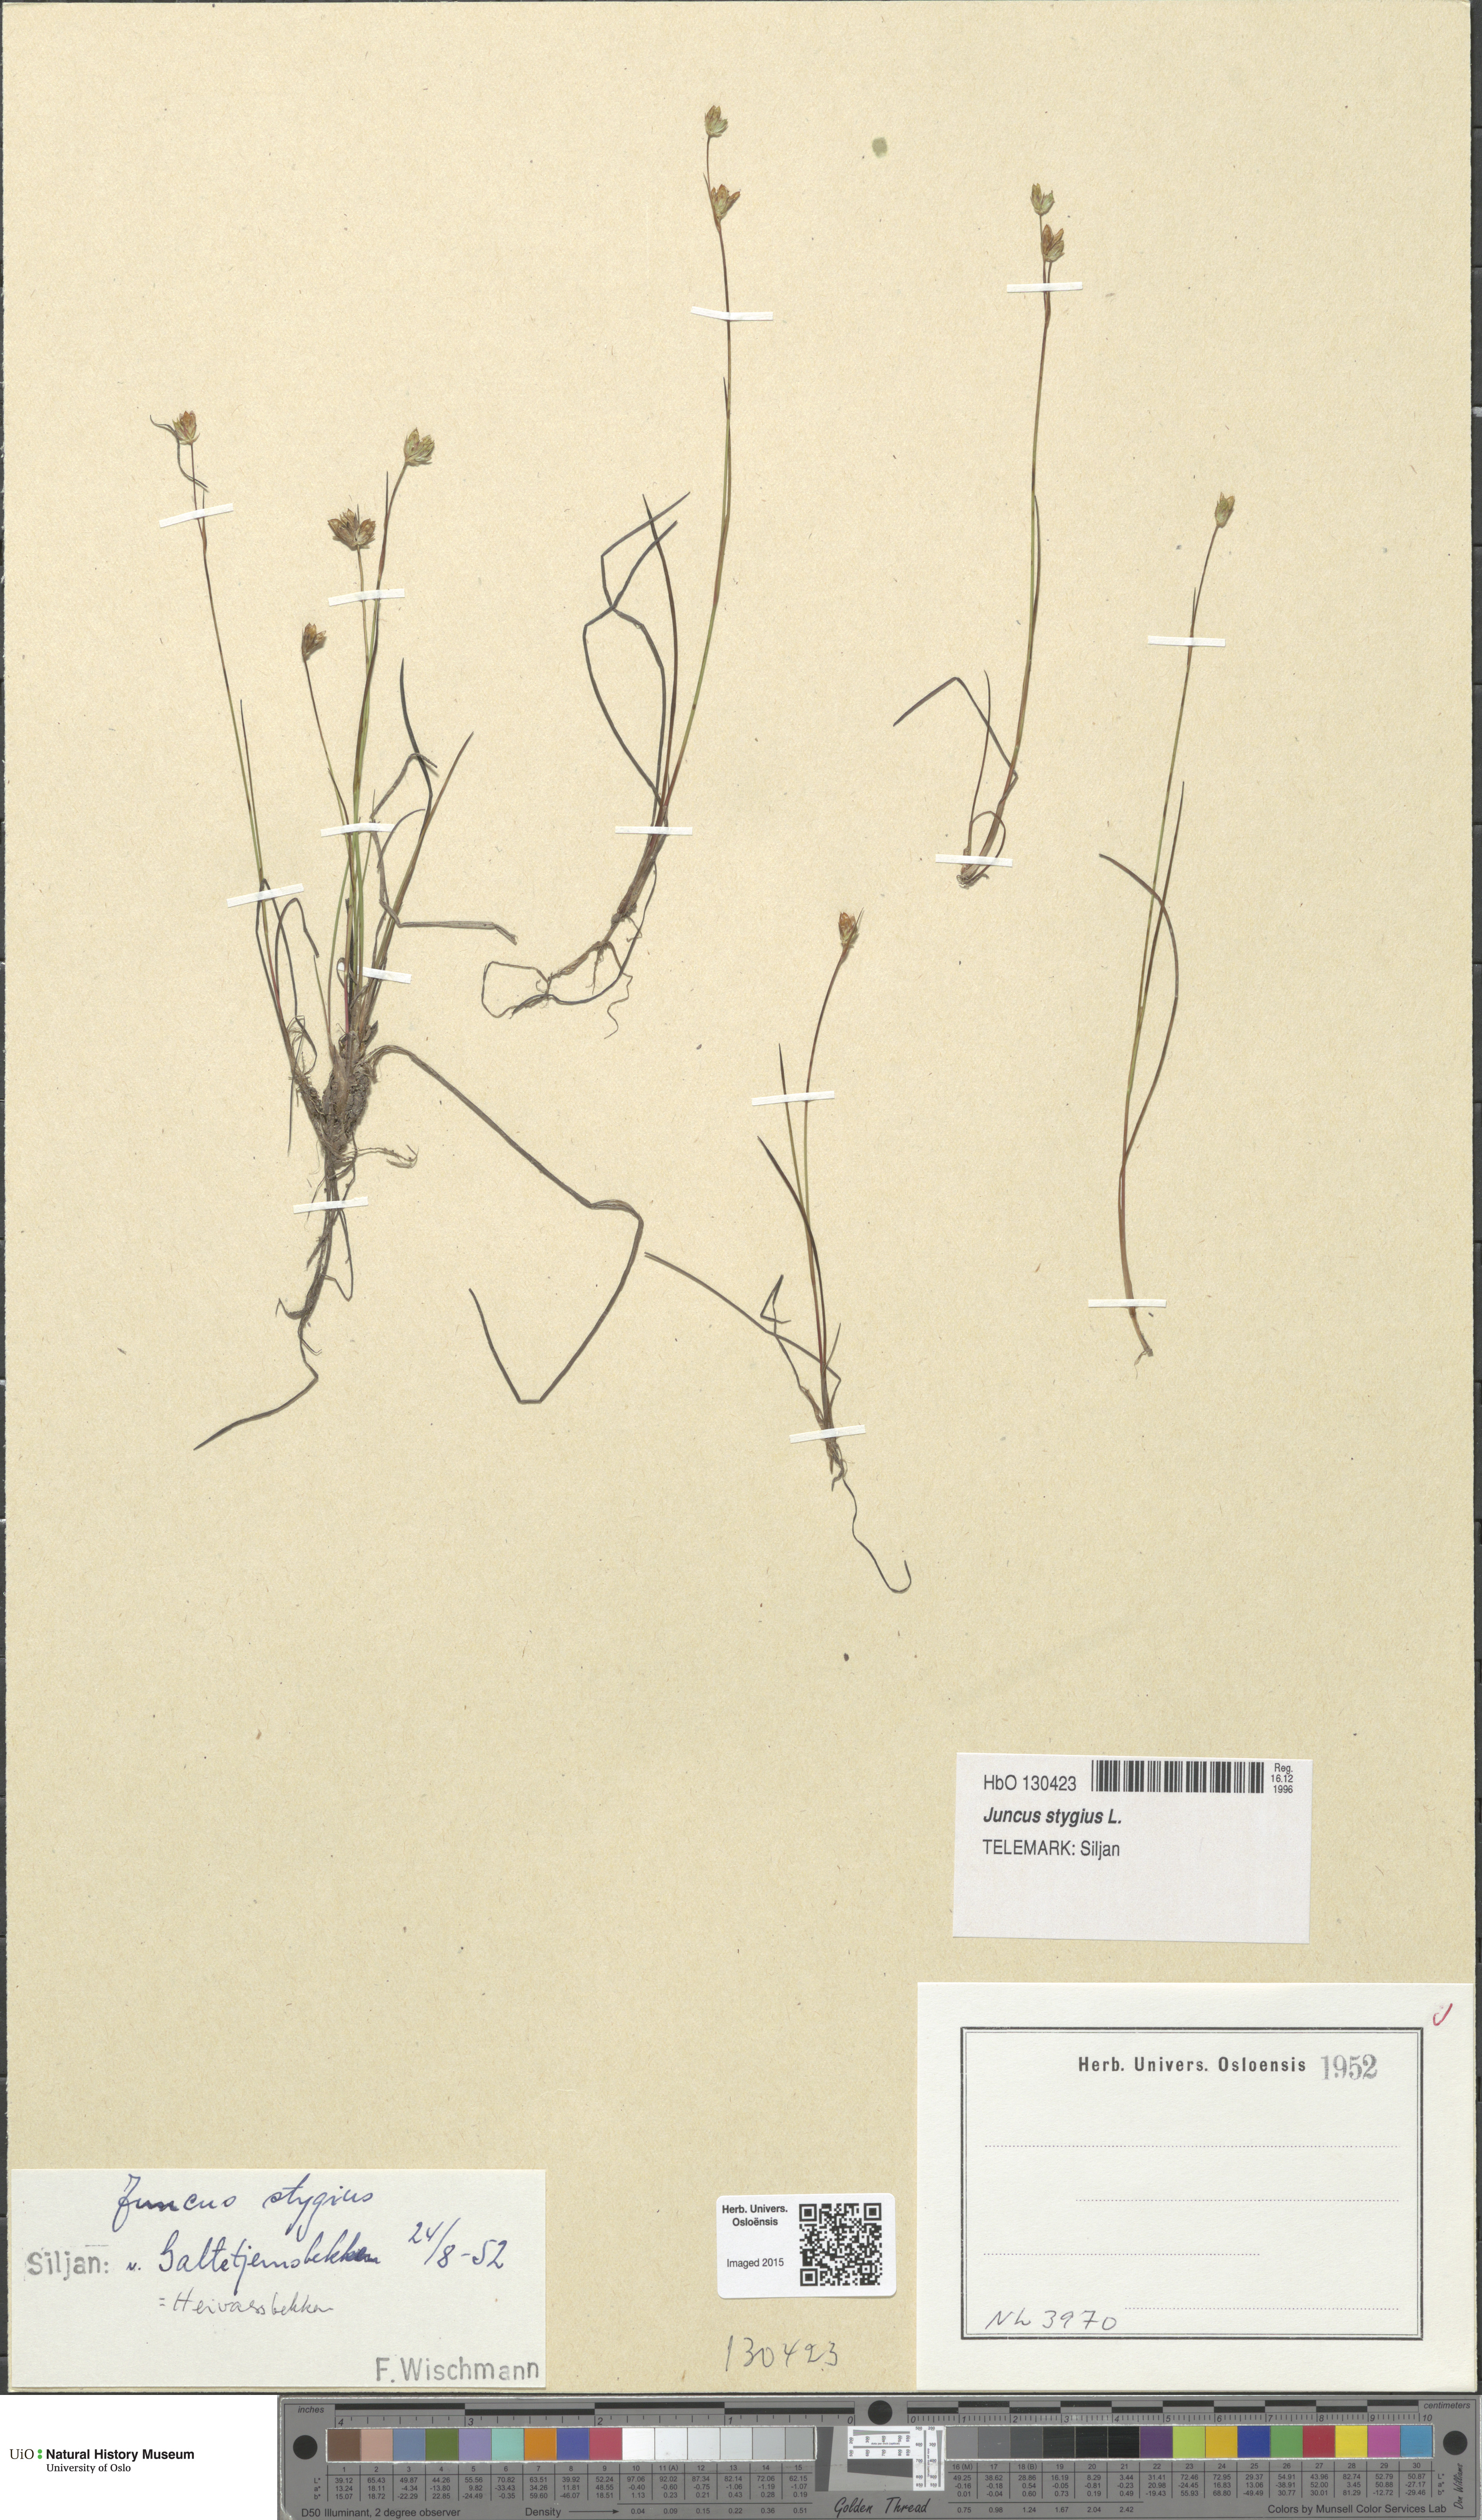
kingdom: Plantae
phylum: Tracheophyta
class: Liliopsida
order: Poales
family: Juncaceae
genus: Juncus
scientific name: Juncus stygius
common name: Bog rush
